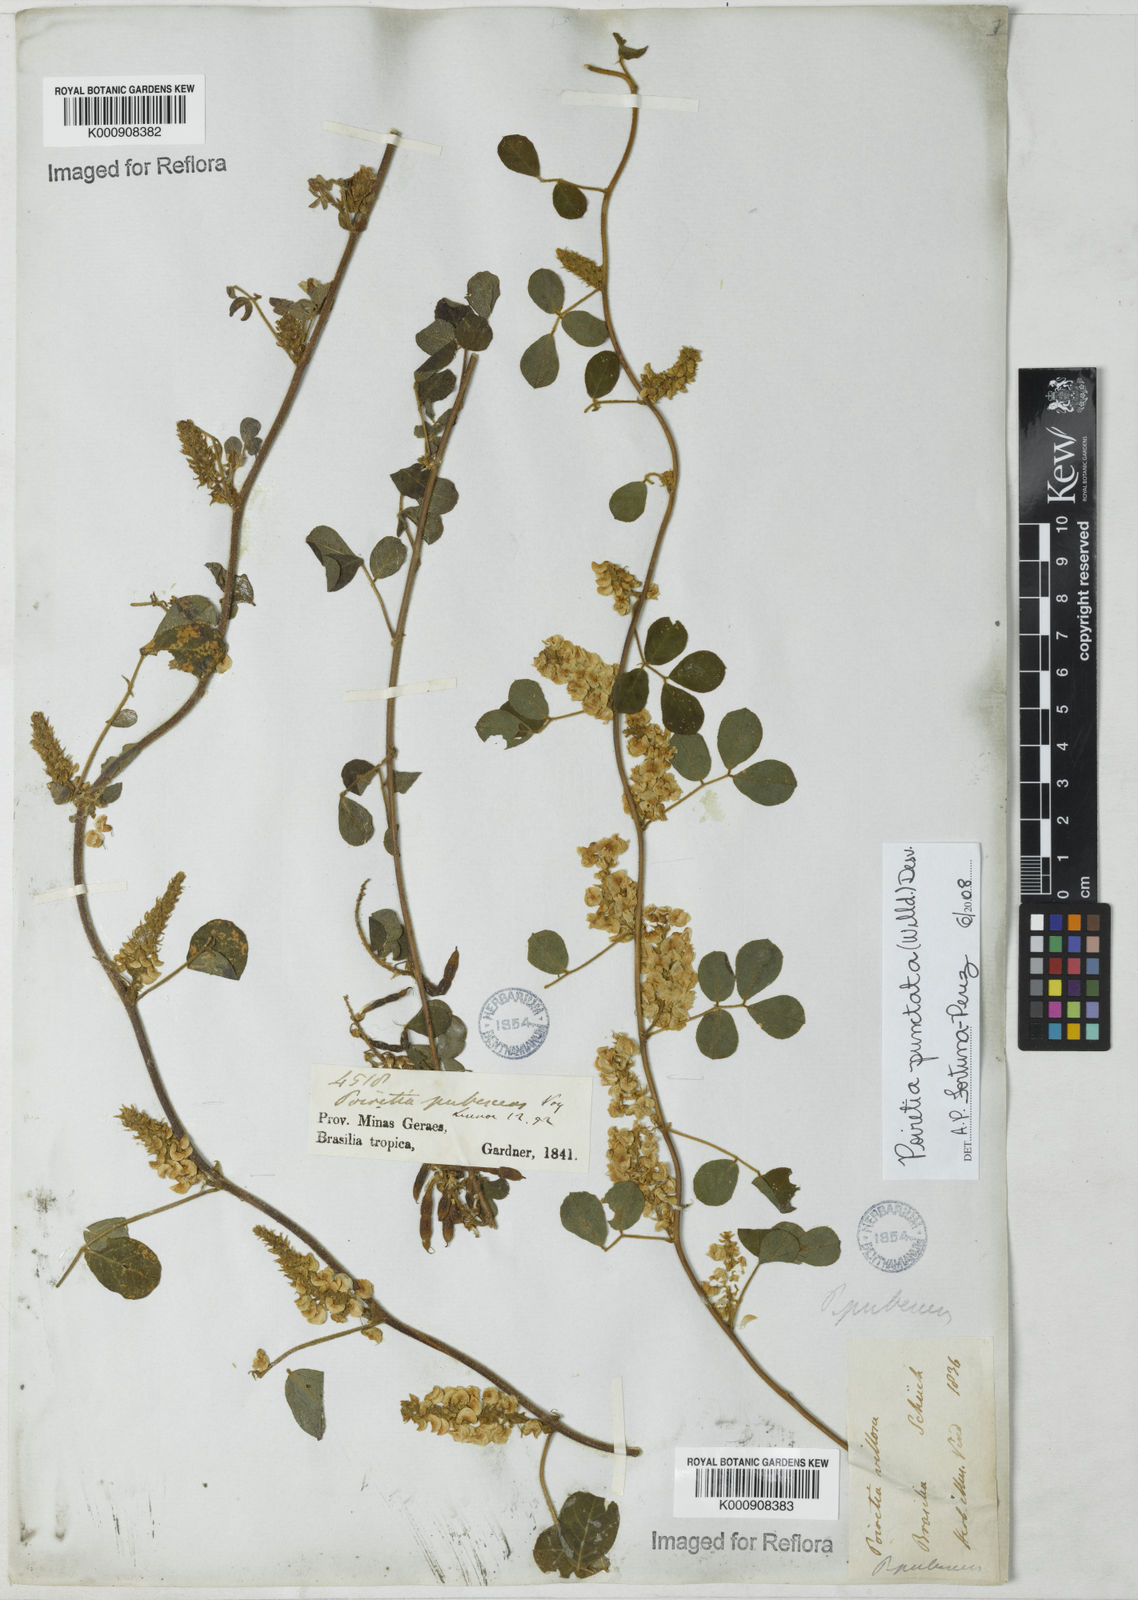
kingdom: Plantae
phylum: Tracheophyta
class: Magnoliopsida
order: Fabales
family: Fabaceae
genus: Poiretia
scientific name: Poiretia punctata
